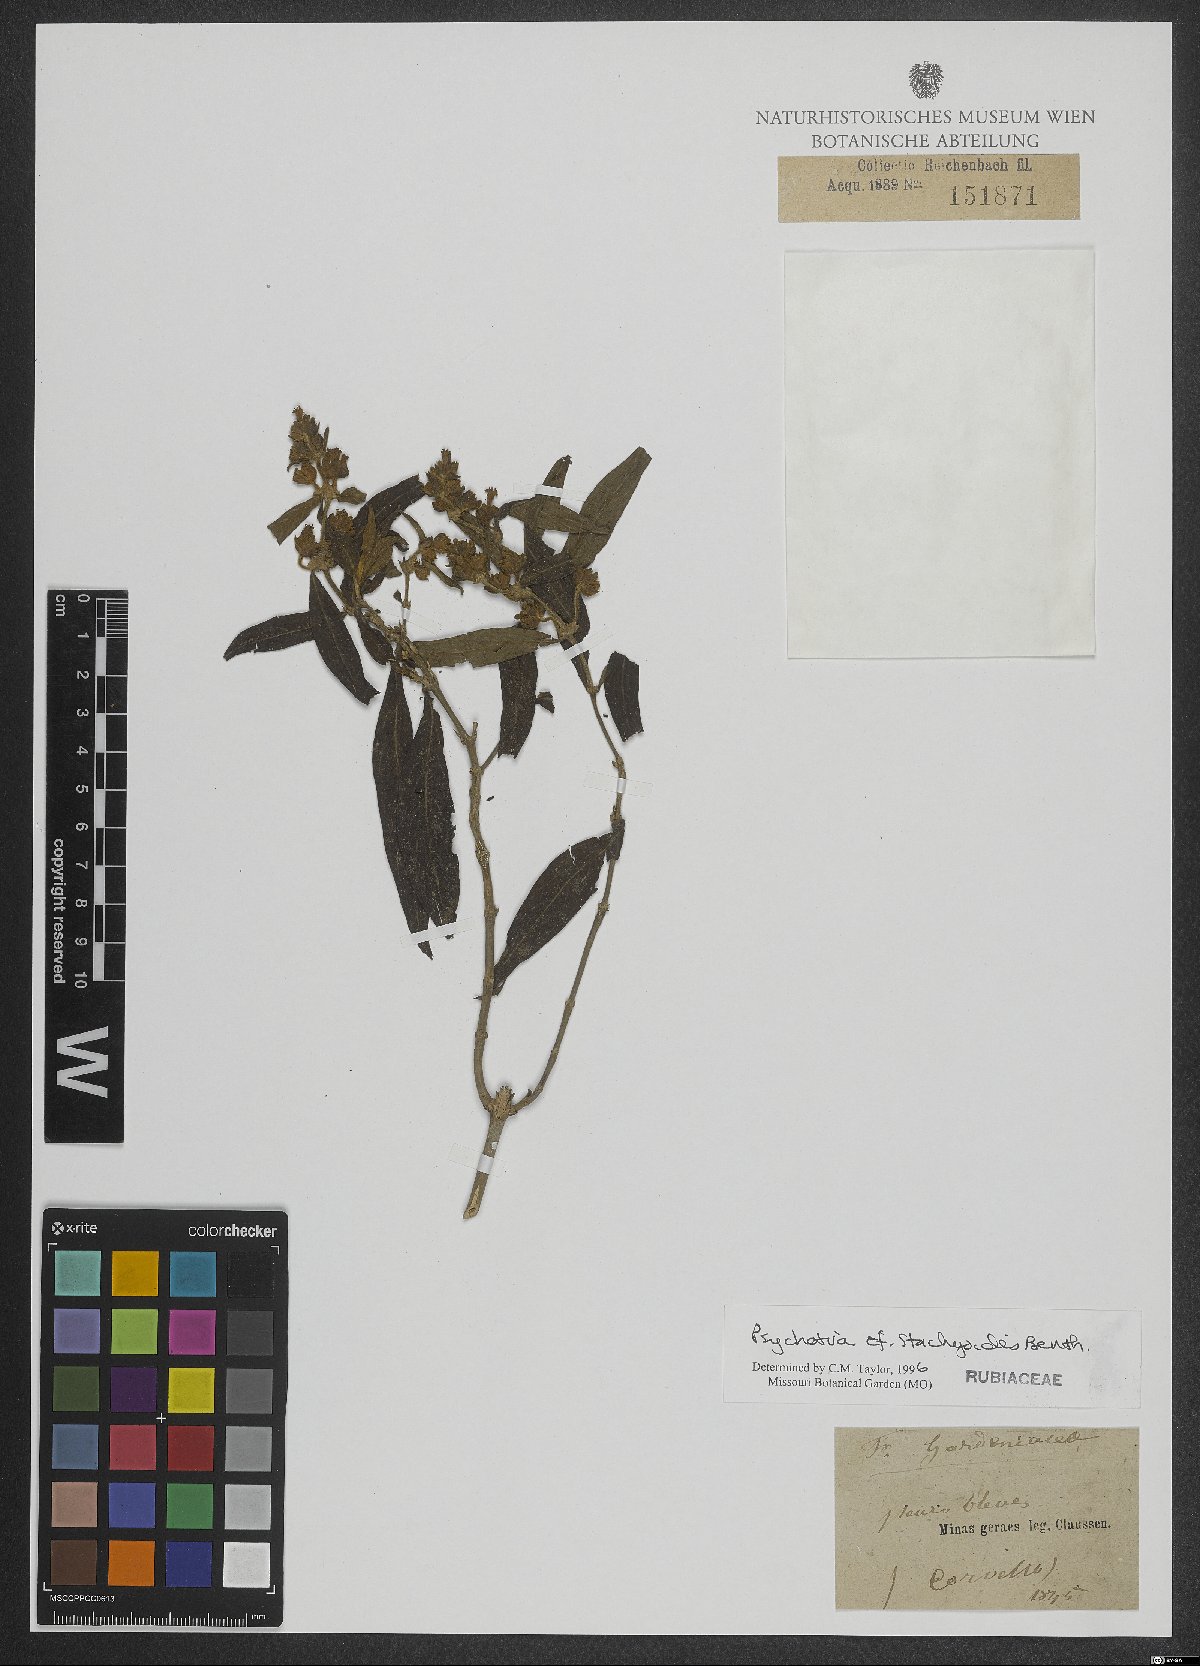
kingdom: Plantae
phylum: Tracheophyta
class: Magnoliopsida
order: Gentianales
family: Rubiaceae
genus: Psychotria
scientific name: Psychotria stachyoides
